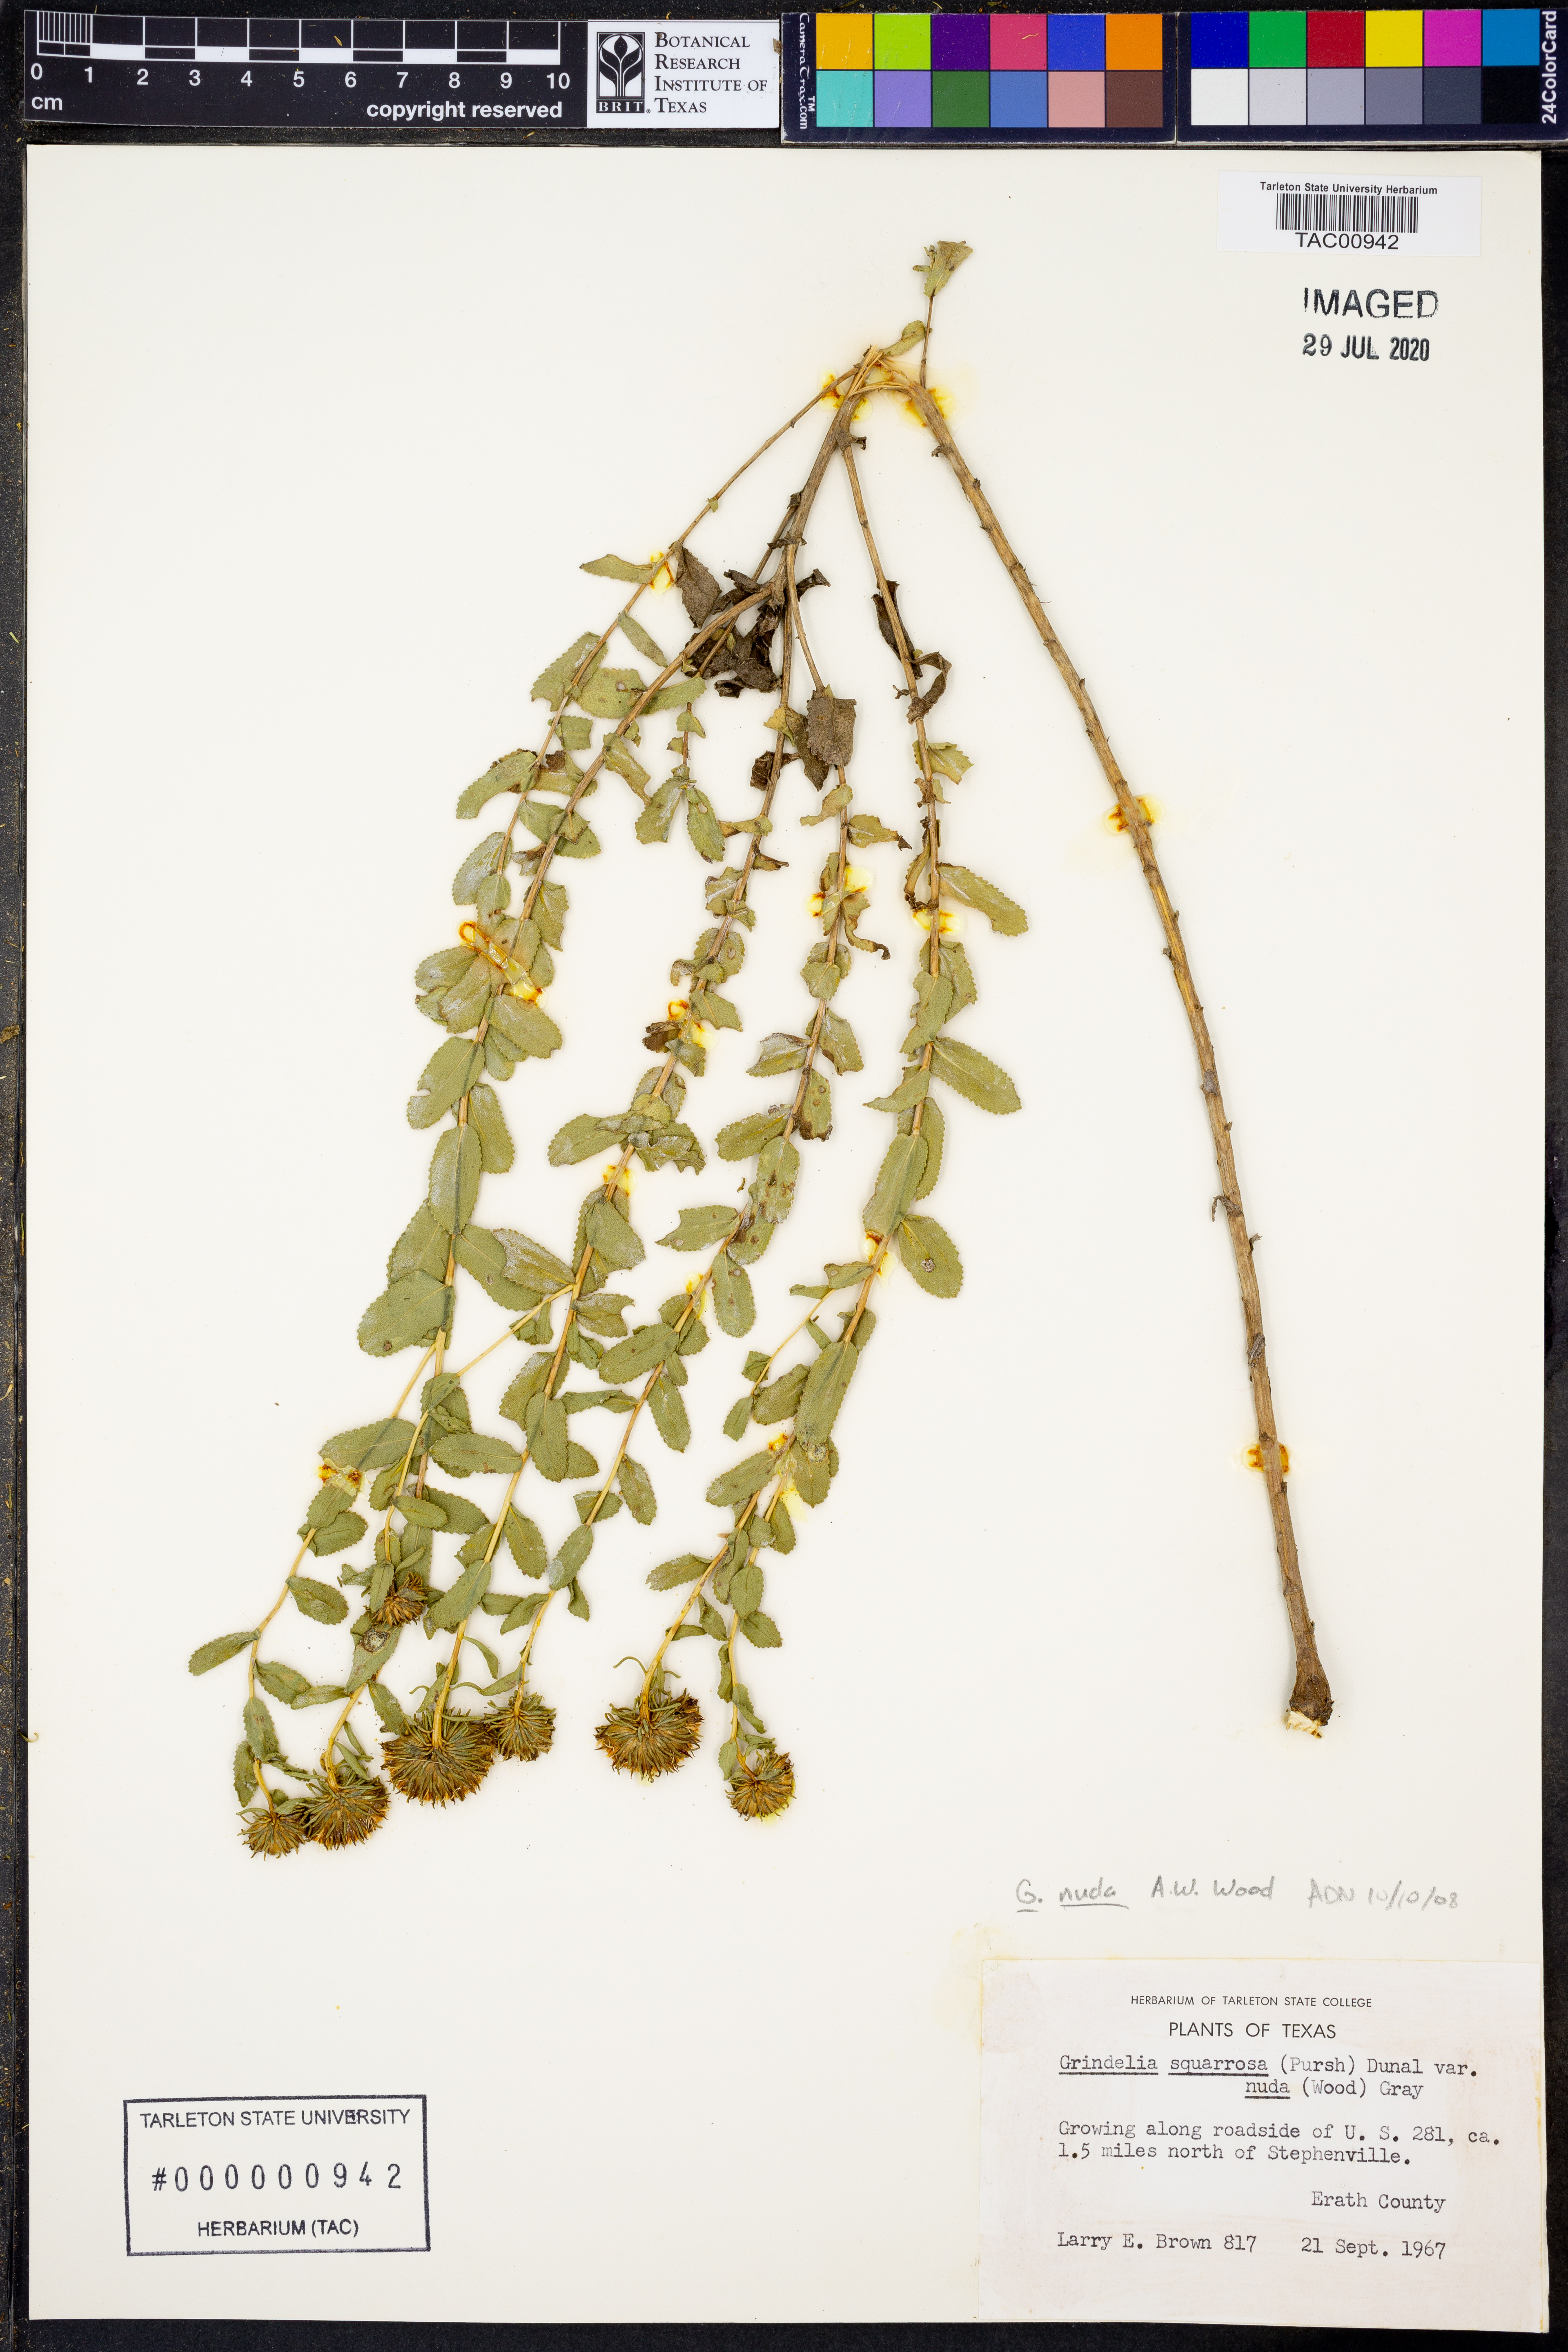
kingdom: Plantae
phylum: Tracheophyta
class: Magnoliopsida
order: Asterales
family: Asteraceae
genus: Grindelia
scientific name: Grindelia nuda
